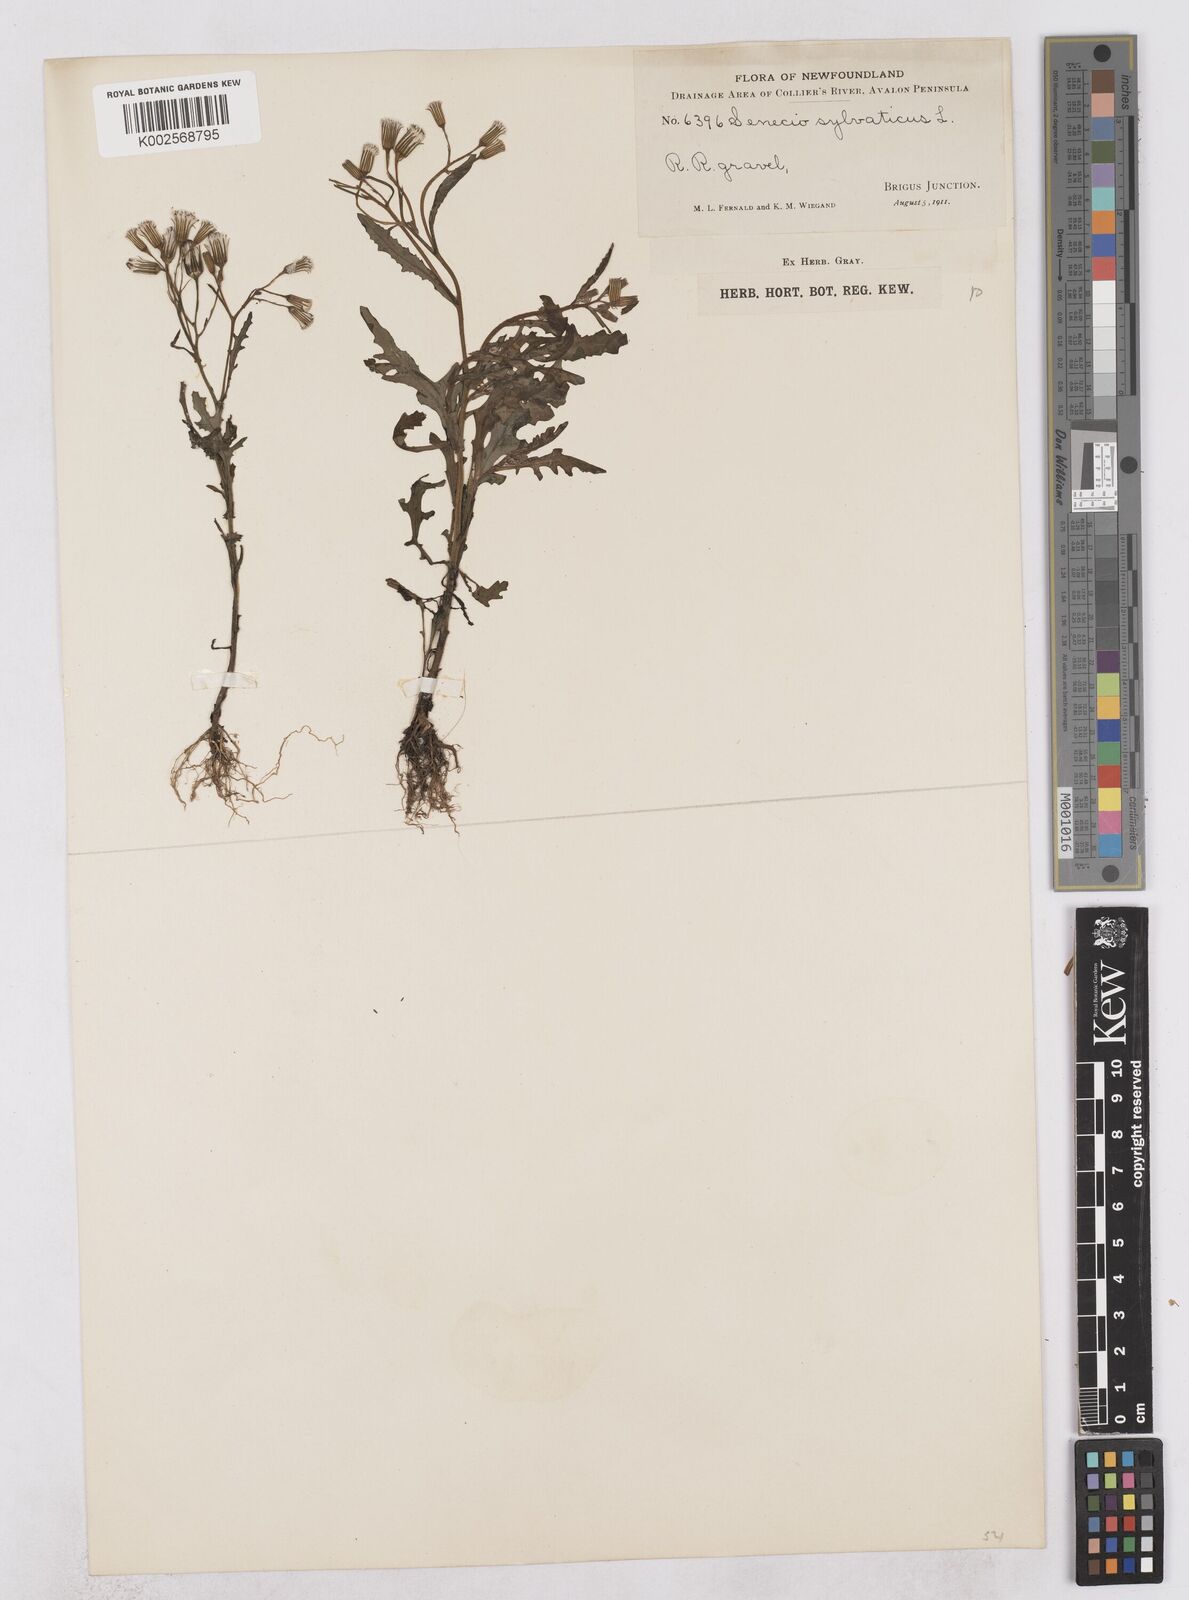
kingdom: Plantae
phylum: Tracheophyta
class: Magnoliopsida
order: Asterales
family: Asteraceae
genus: Senecio
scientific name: Senecio sylvaticus
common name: Woodland ragwort
